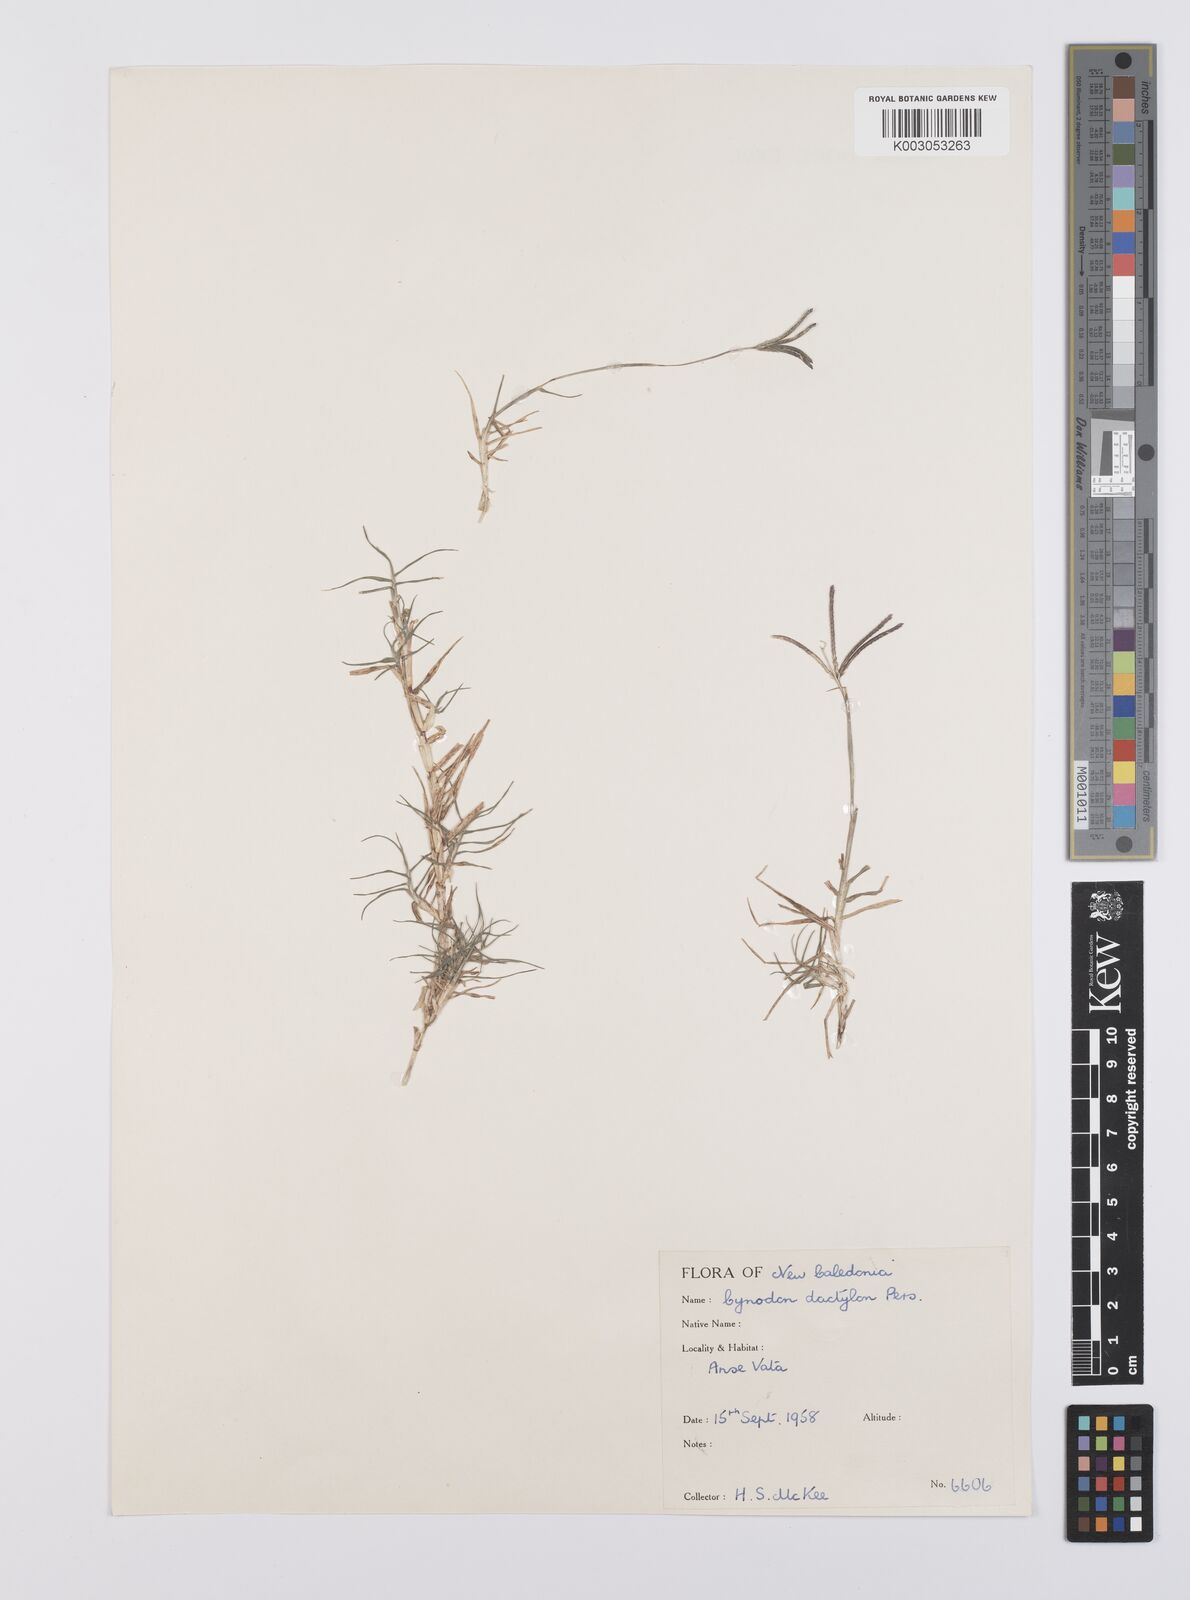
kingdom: Plantae
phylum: Tracheophyta
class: Liliopsida
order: Poales
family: Poaceae
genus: Cynodon
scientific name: Cynodon dactylon
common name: Bermuda grass
